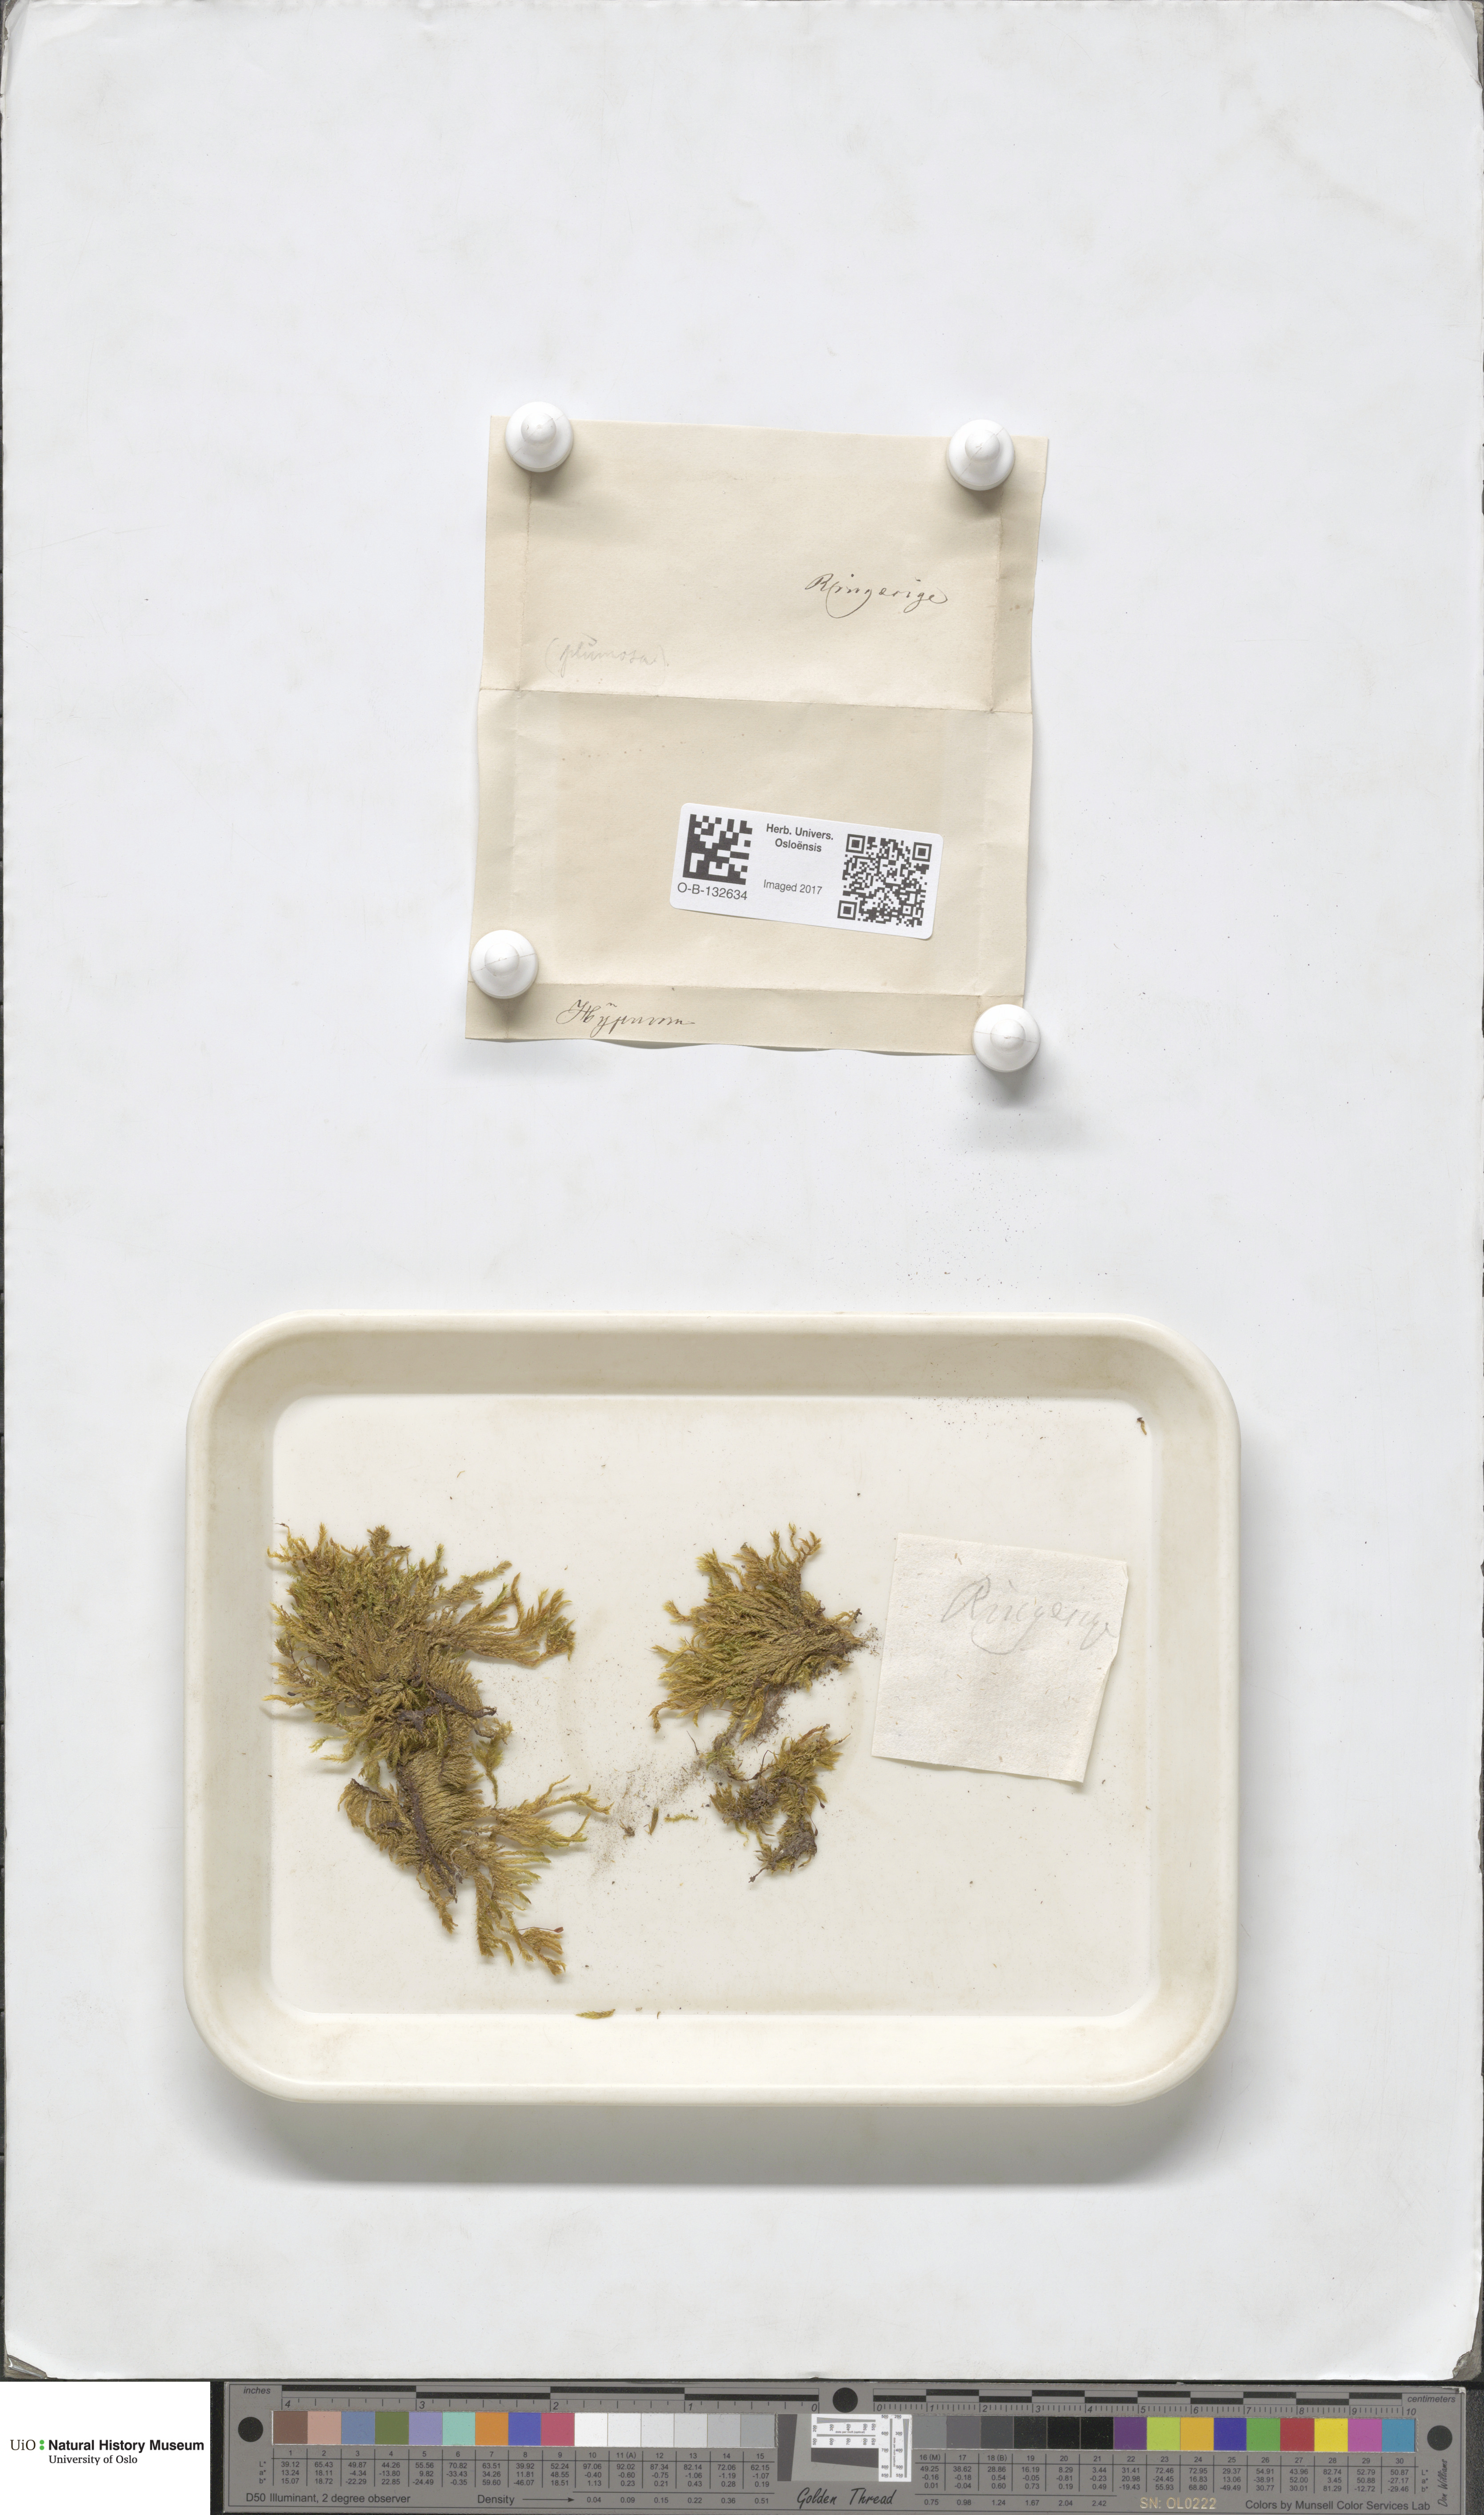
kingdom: Plantae
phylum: Bryophyta
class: Bryopsida
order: Hypnales
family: Brachytheciaceae
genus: Sciuro-hypnum
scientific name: Sciuro-hypnum plumosum
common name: Rusty feather-moss
